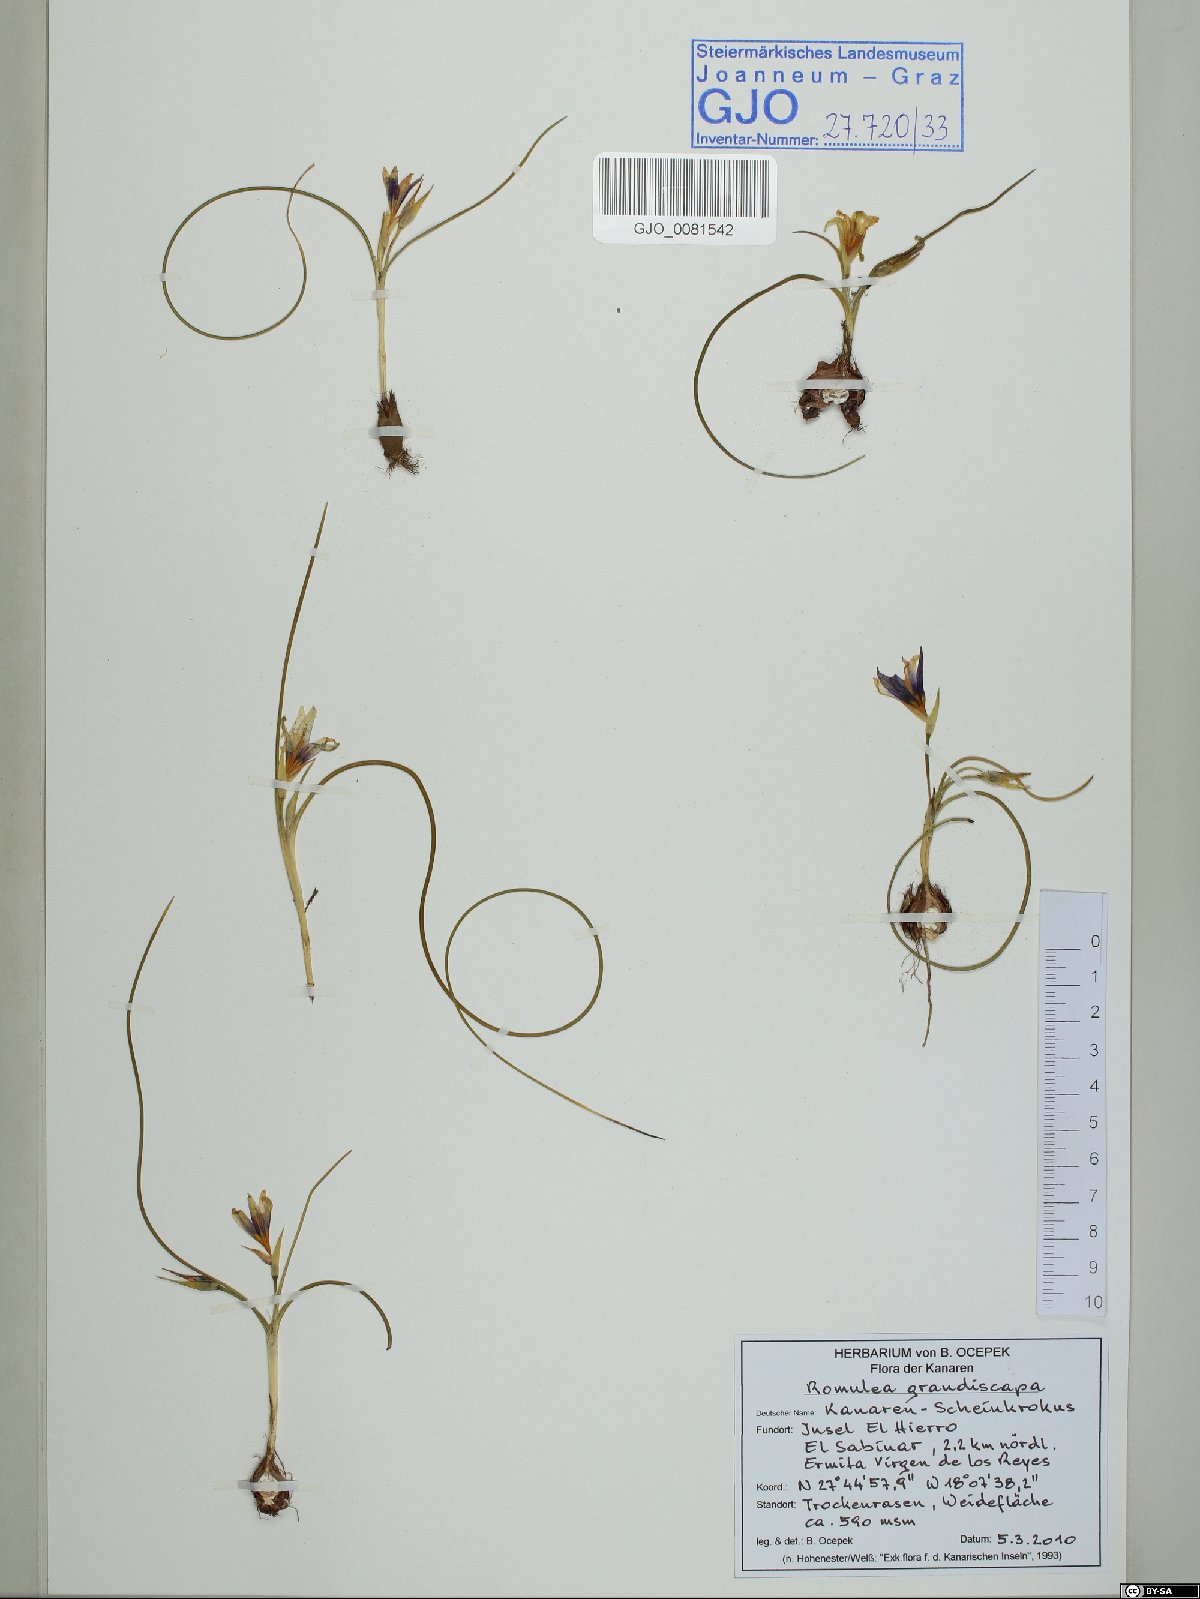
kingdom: Plantae
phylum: Tracheophyta
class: Liliopsida
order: Asparagales
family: Iridaceae
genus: Romulea
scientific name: Romulea columnae
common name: Sand-crocus
